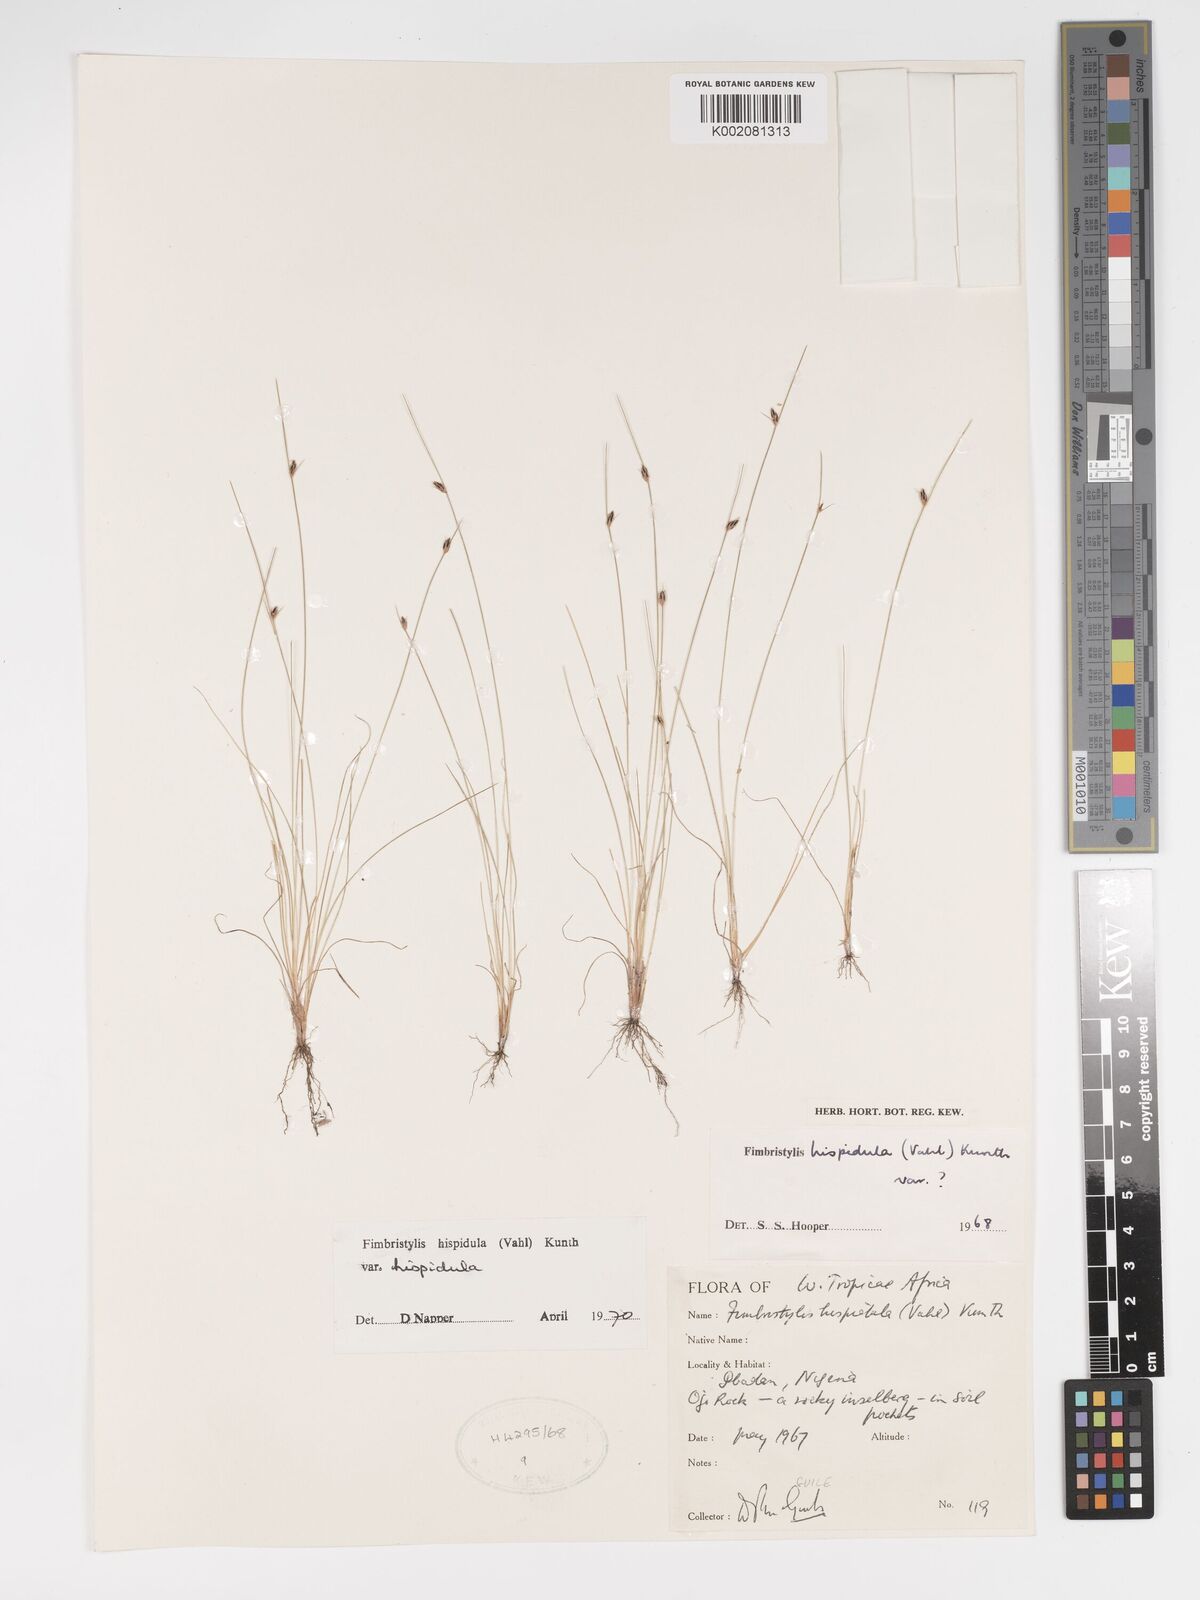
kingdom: Plantae
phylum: Tracheophyta
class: Liliopsida
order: Poales
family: Cyperaceae
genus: Bulbostylis
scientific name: Bulbostylis hispidula
